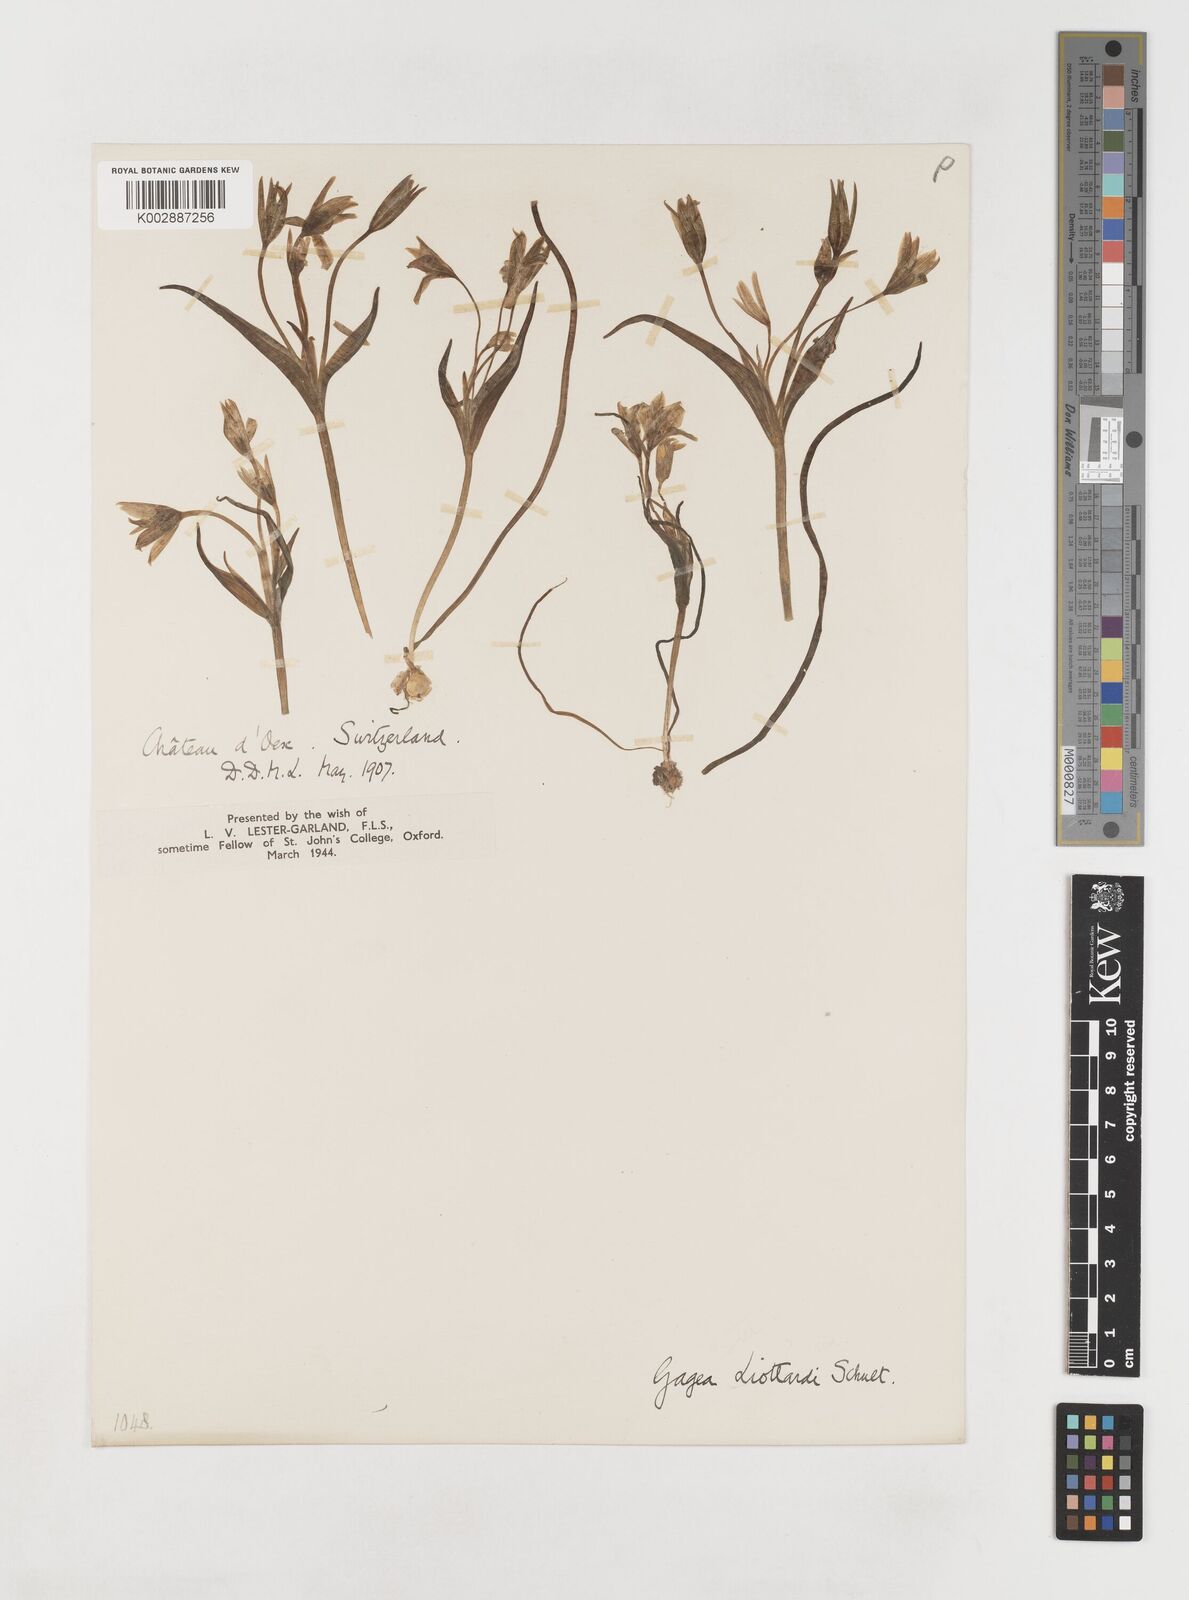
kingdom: Plantae
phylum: Tracheophyta
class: Liliopsida
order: Liliales
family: Liliaceae
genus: Gagea
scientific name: Gagea bohemica
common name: Early star-of-bethlehem
